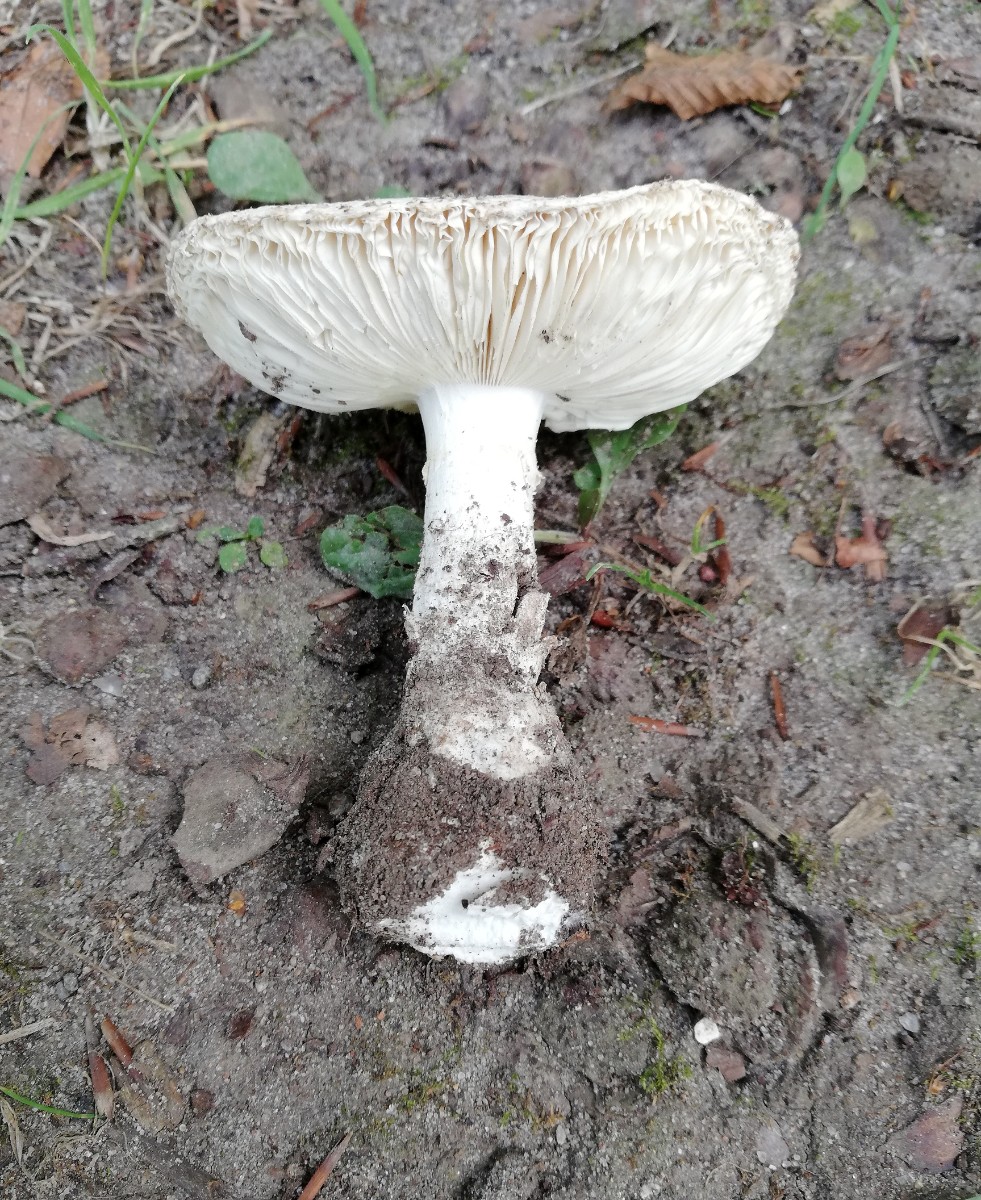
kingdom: Fungi
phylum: Basidiomycota
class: Agaricomycetes
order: Agaricales
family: Amanitaceae
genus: Amanita
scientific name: Amanita
